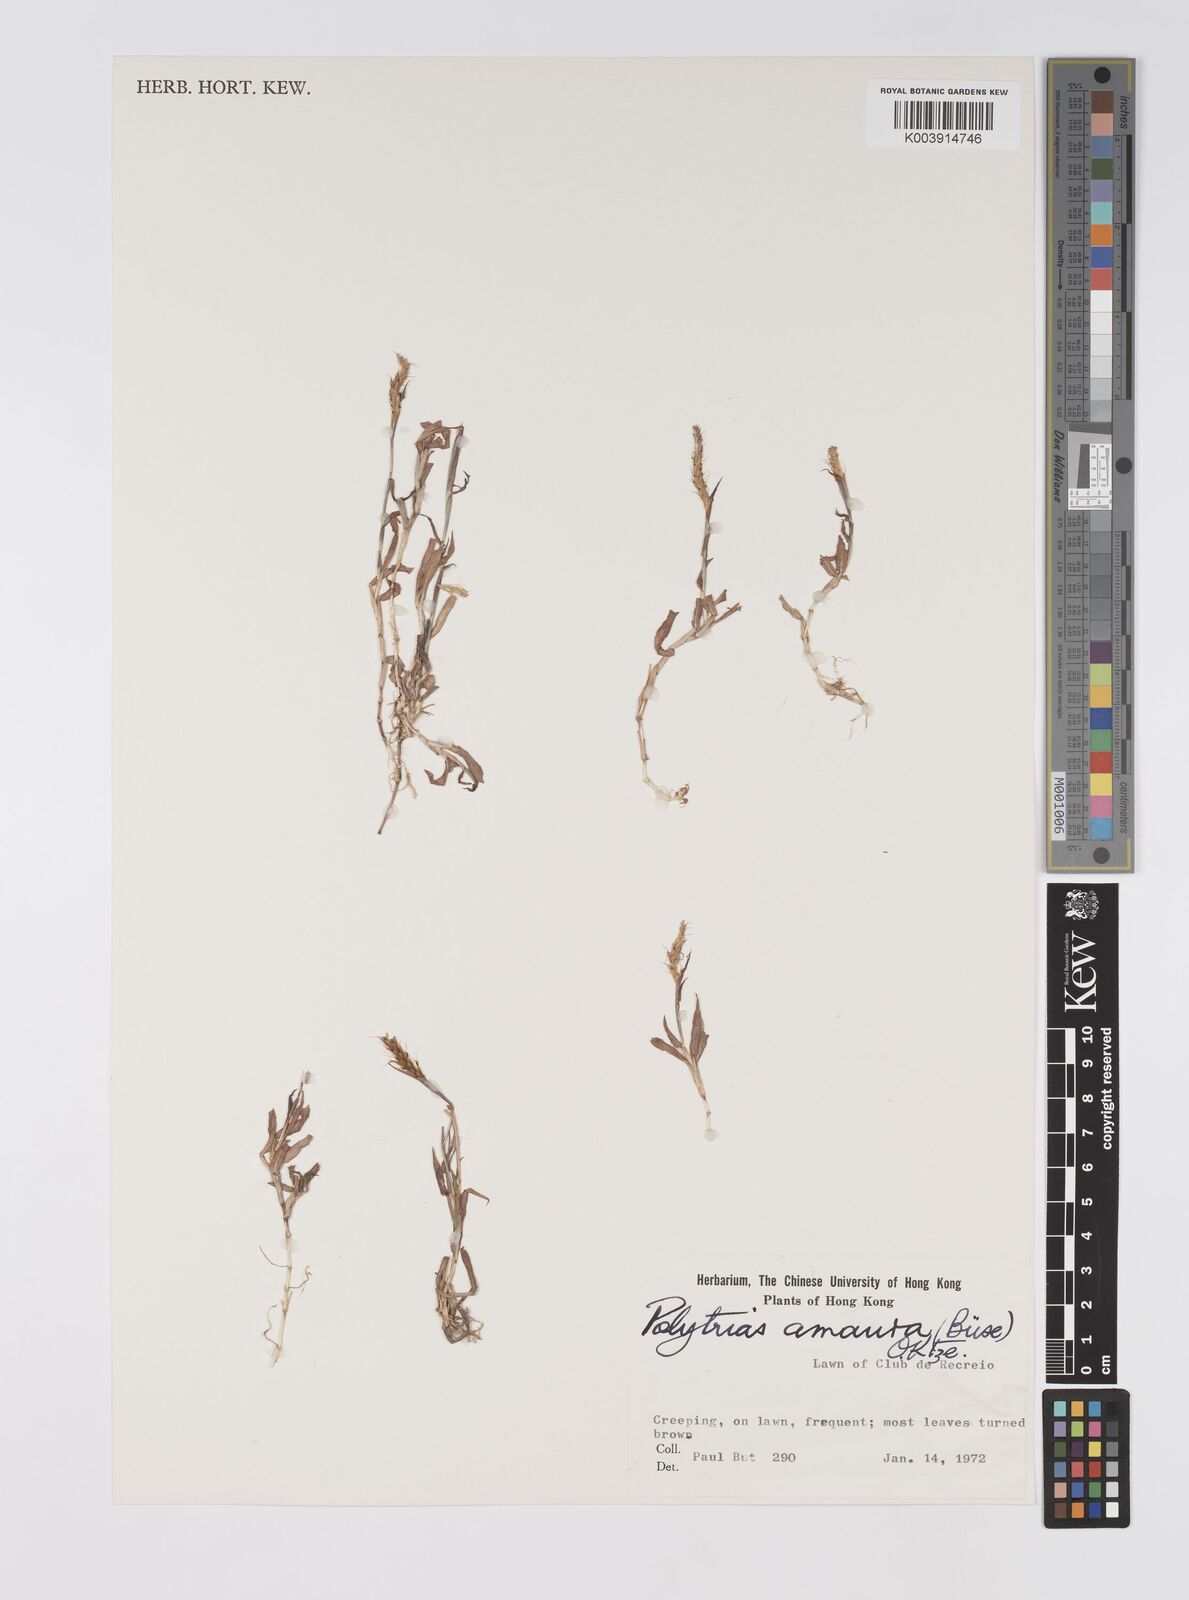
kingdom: Plantae
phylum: Tracheophyta
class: Liliopsida
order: Poales
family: Poaceae
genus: Polytrias
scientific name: Polytrias indica
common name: Indian murainagrass
